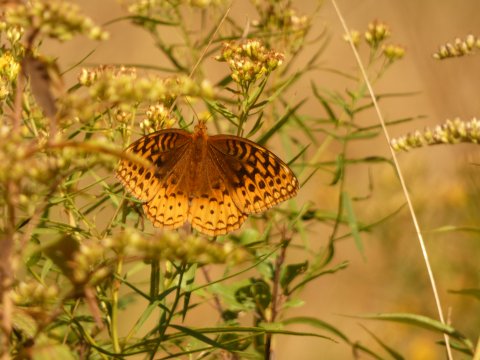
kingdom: Animalia
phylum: Arthropoda
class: Insecta
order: Lepidoptera
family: Nymphalidae
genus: Speyeria
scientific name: Speyeria cybele
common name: Great Spangled Fritillary
